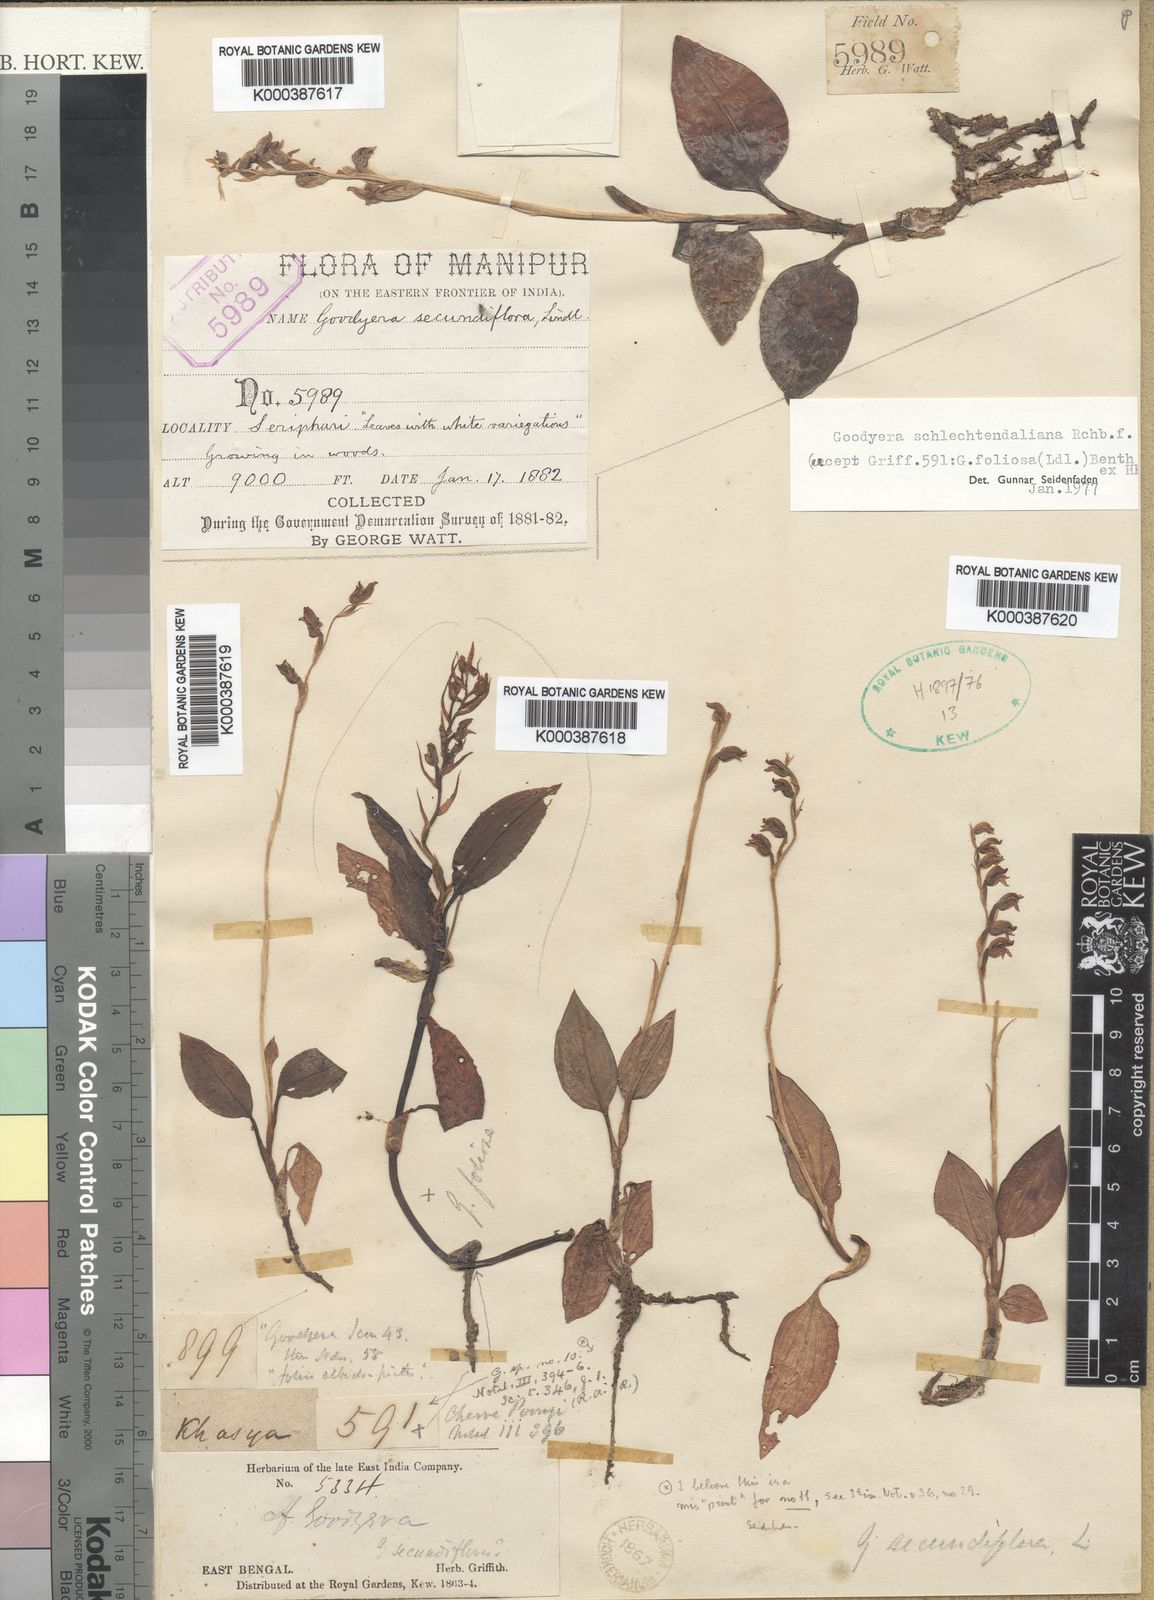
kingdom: Plantae
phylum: Tracheophyta
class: Liliopsida
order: Asparagales
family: Orchidaceae
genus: Goodyera
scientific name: Goodyera schlechtendaliana
